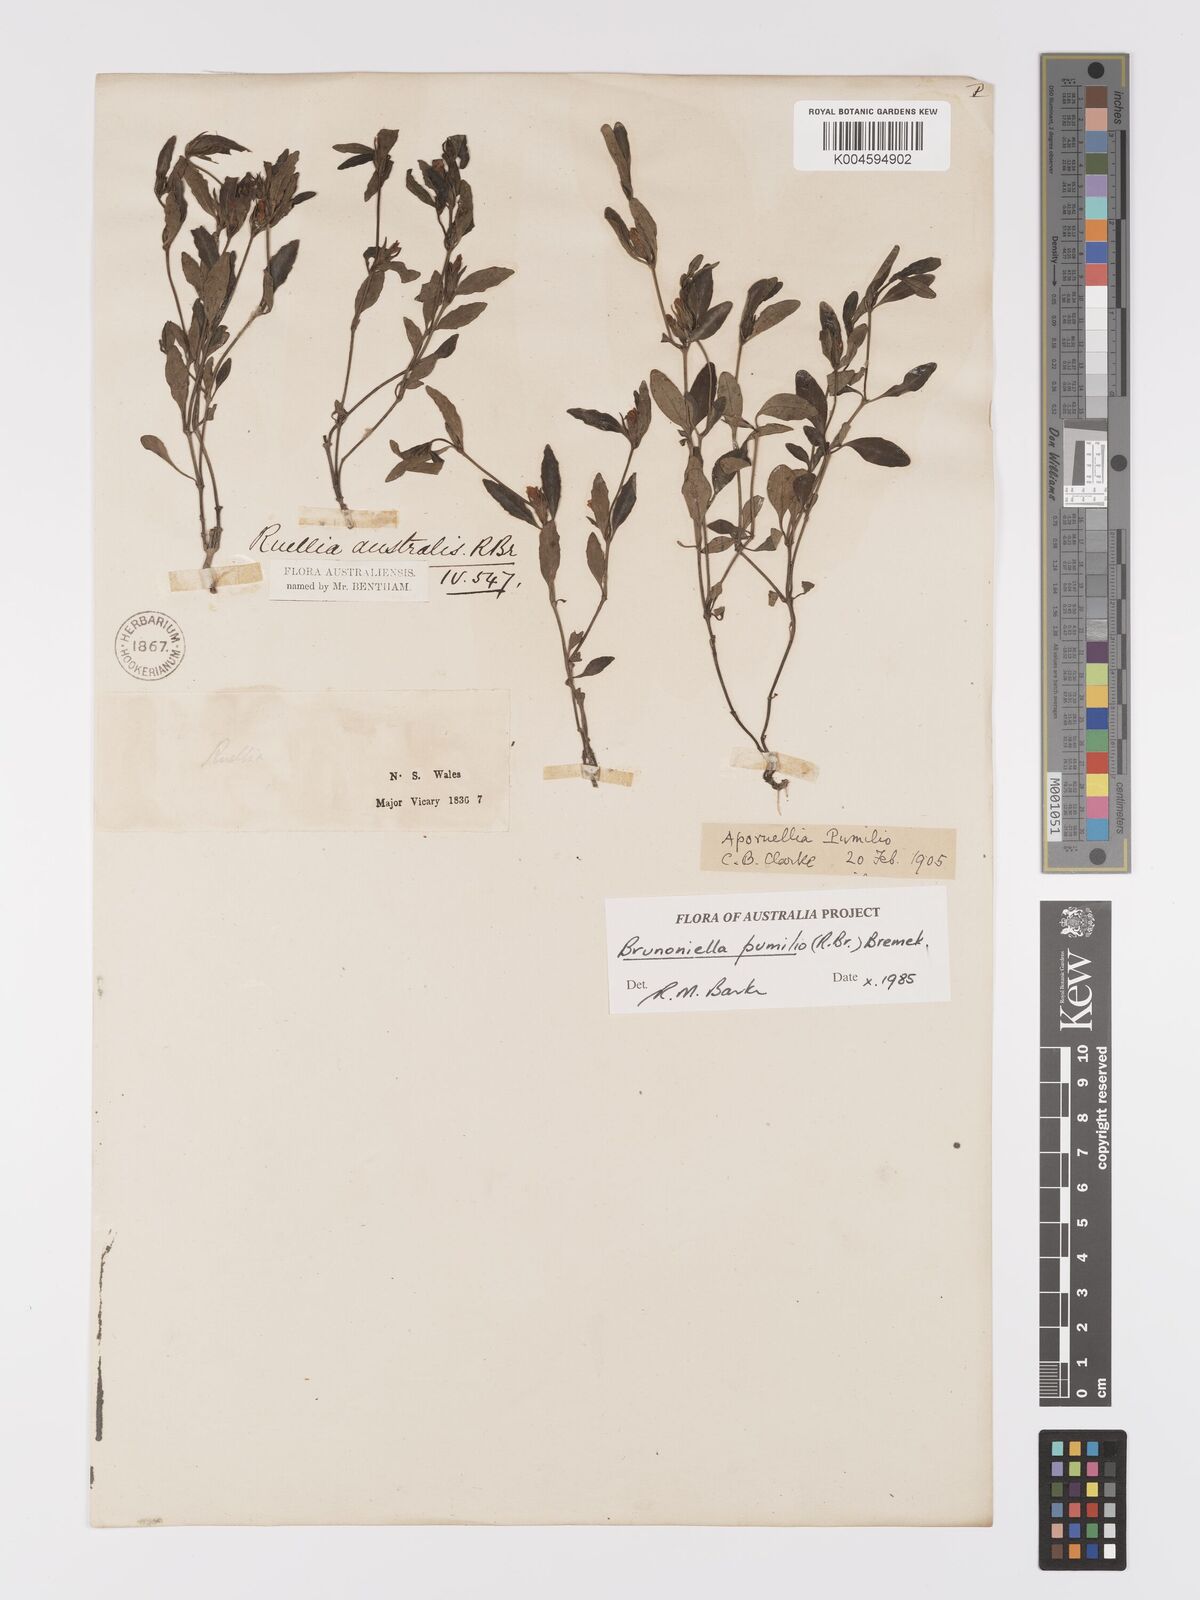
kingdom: Plantae
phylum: Tracheophyta
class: Magnoliopsida
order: Lamiales
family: Acanthaceae
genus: Brunoniella
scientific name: Brunoniella pumilio
